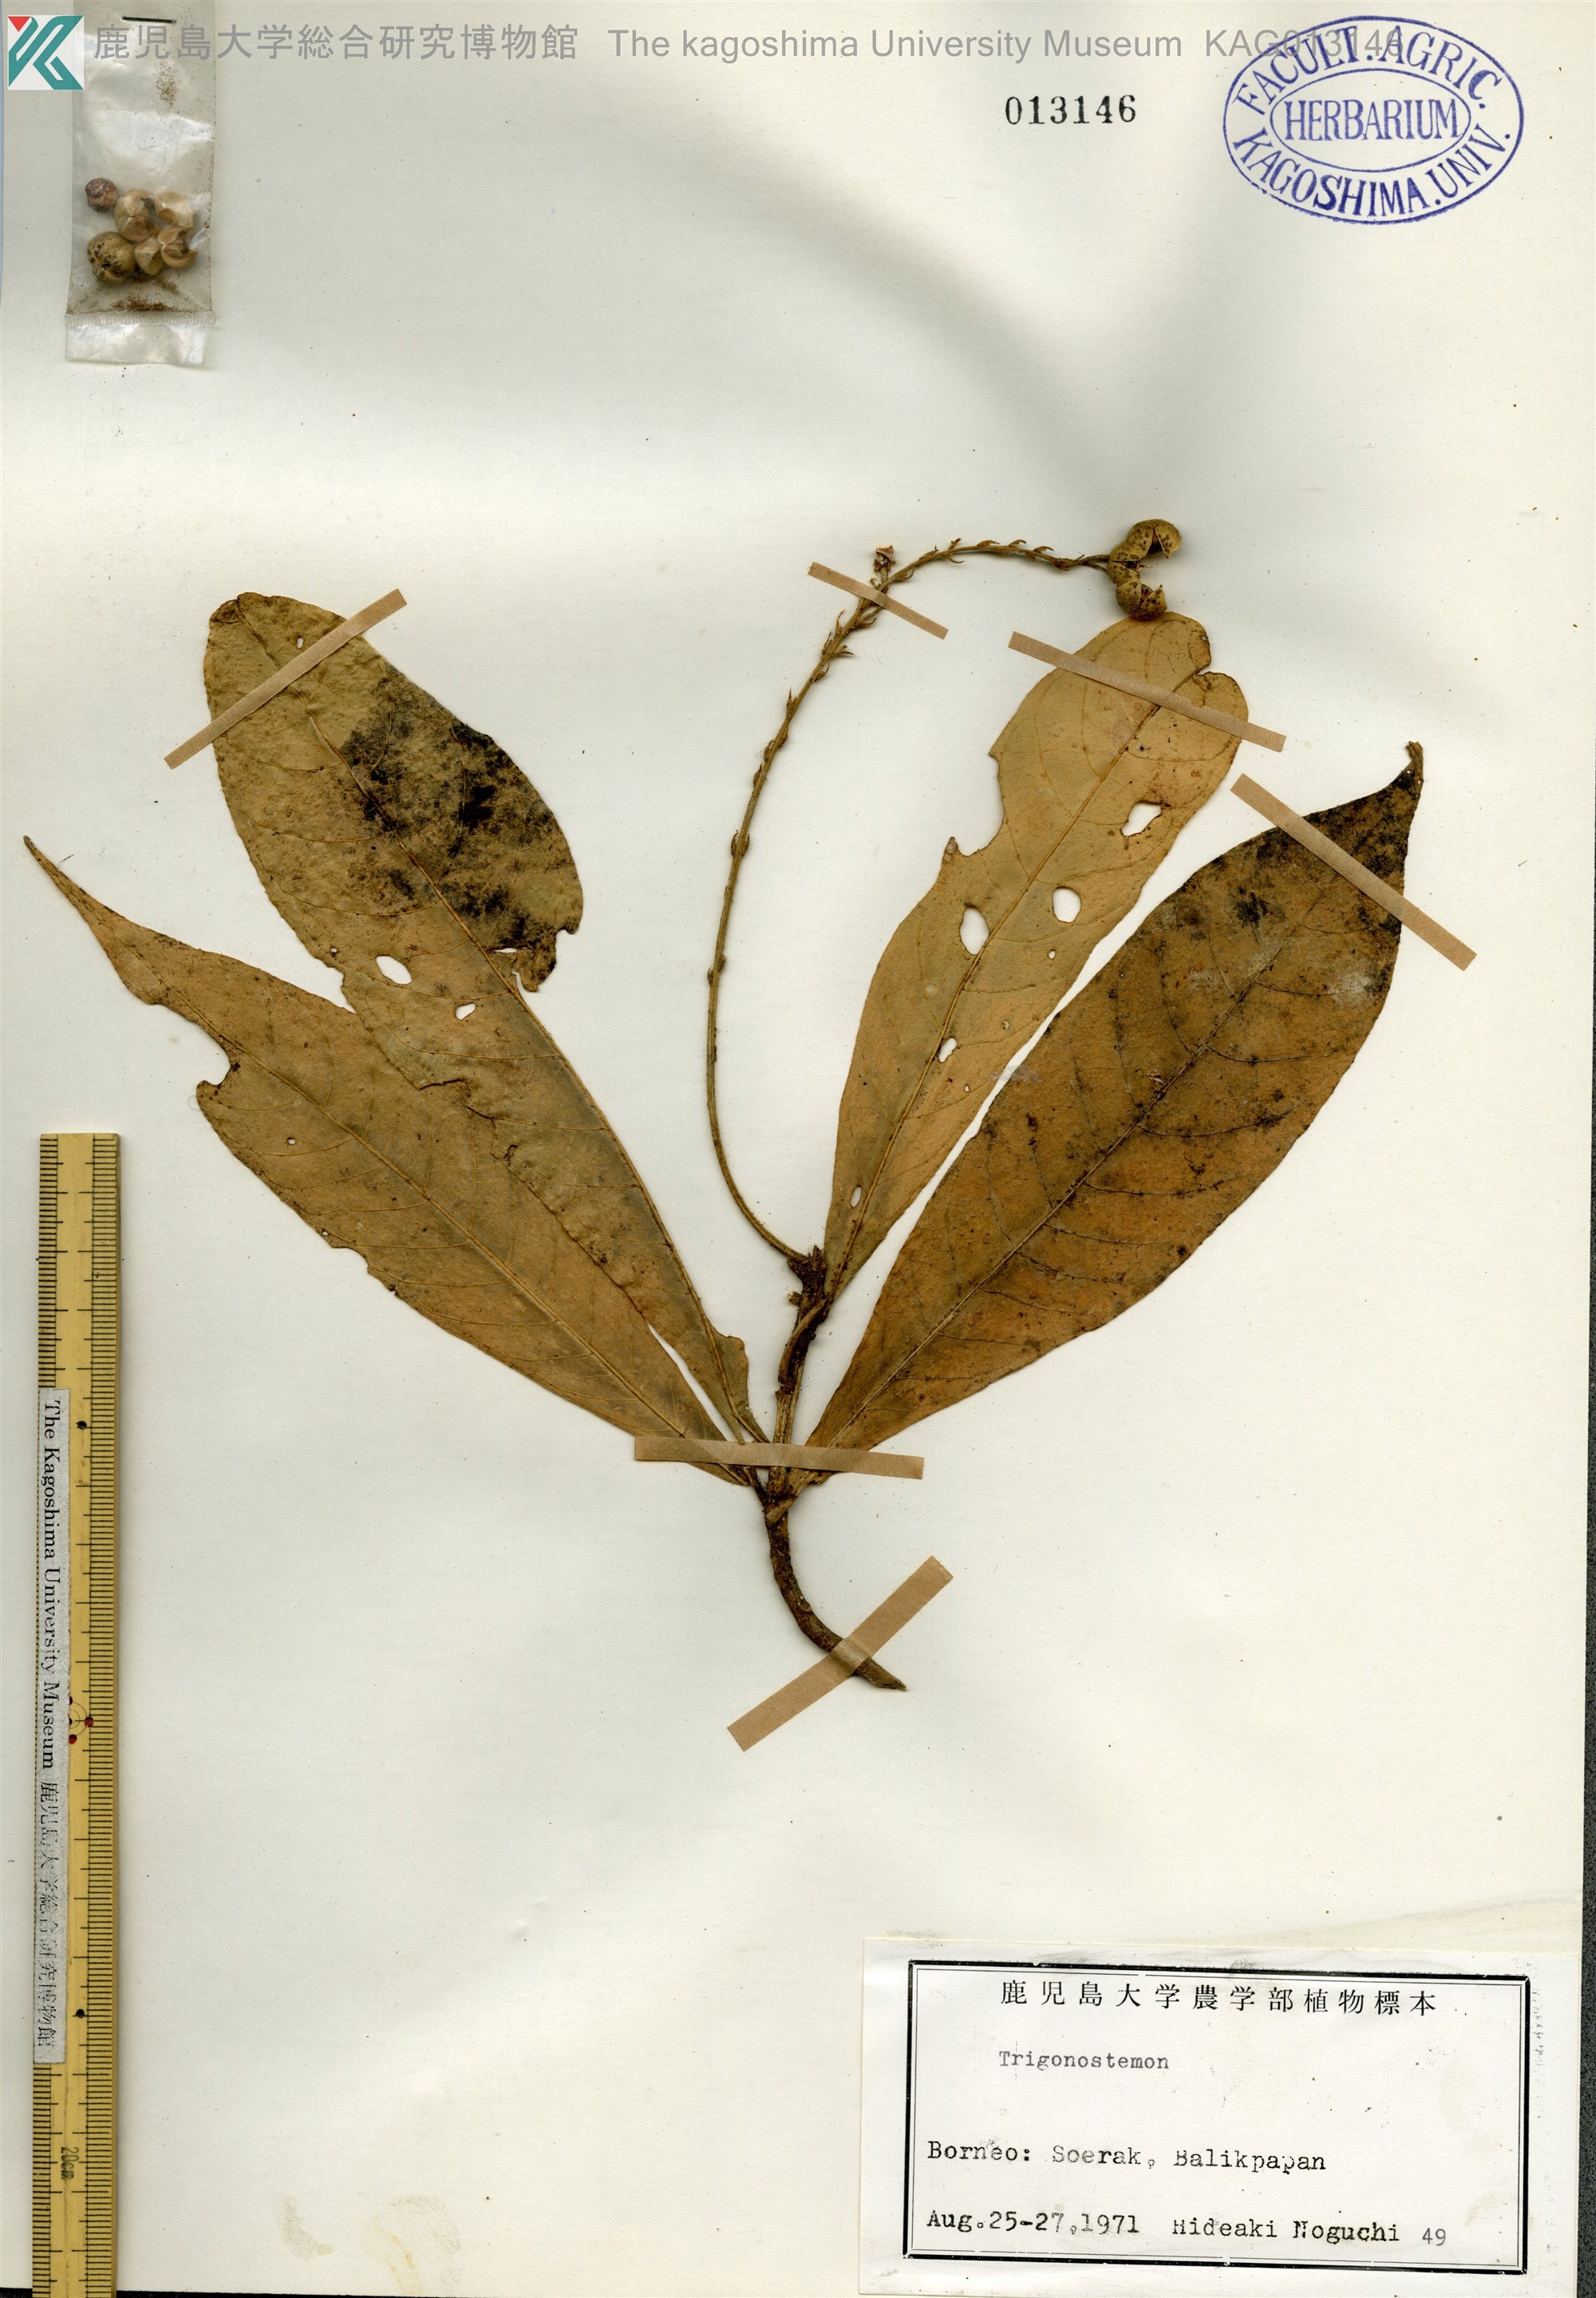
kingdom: Plantae
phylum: Tracheophyta
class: Magnoliopsida
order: Malpighiales
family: Euphorbiaceae
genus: Trigonostemon
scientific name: Trigonostemon
